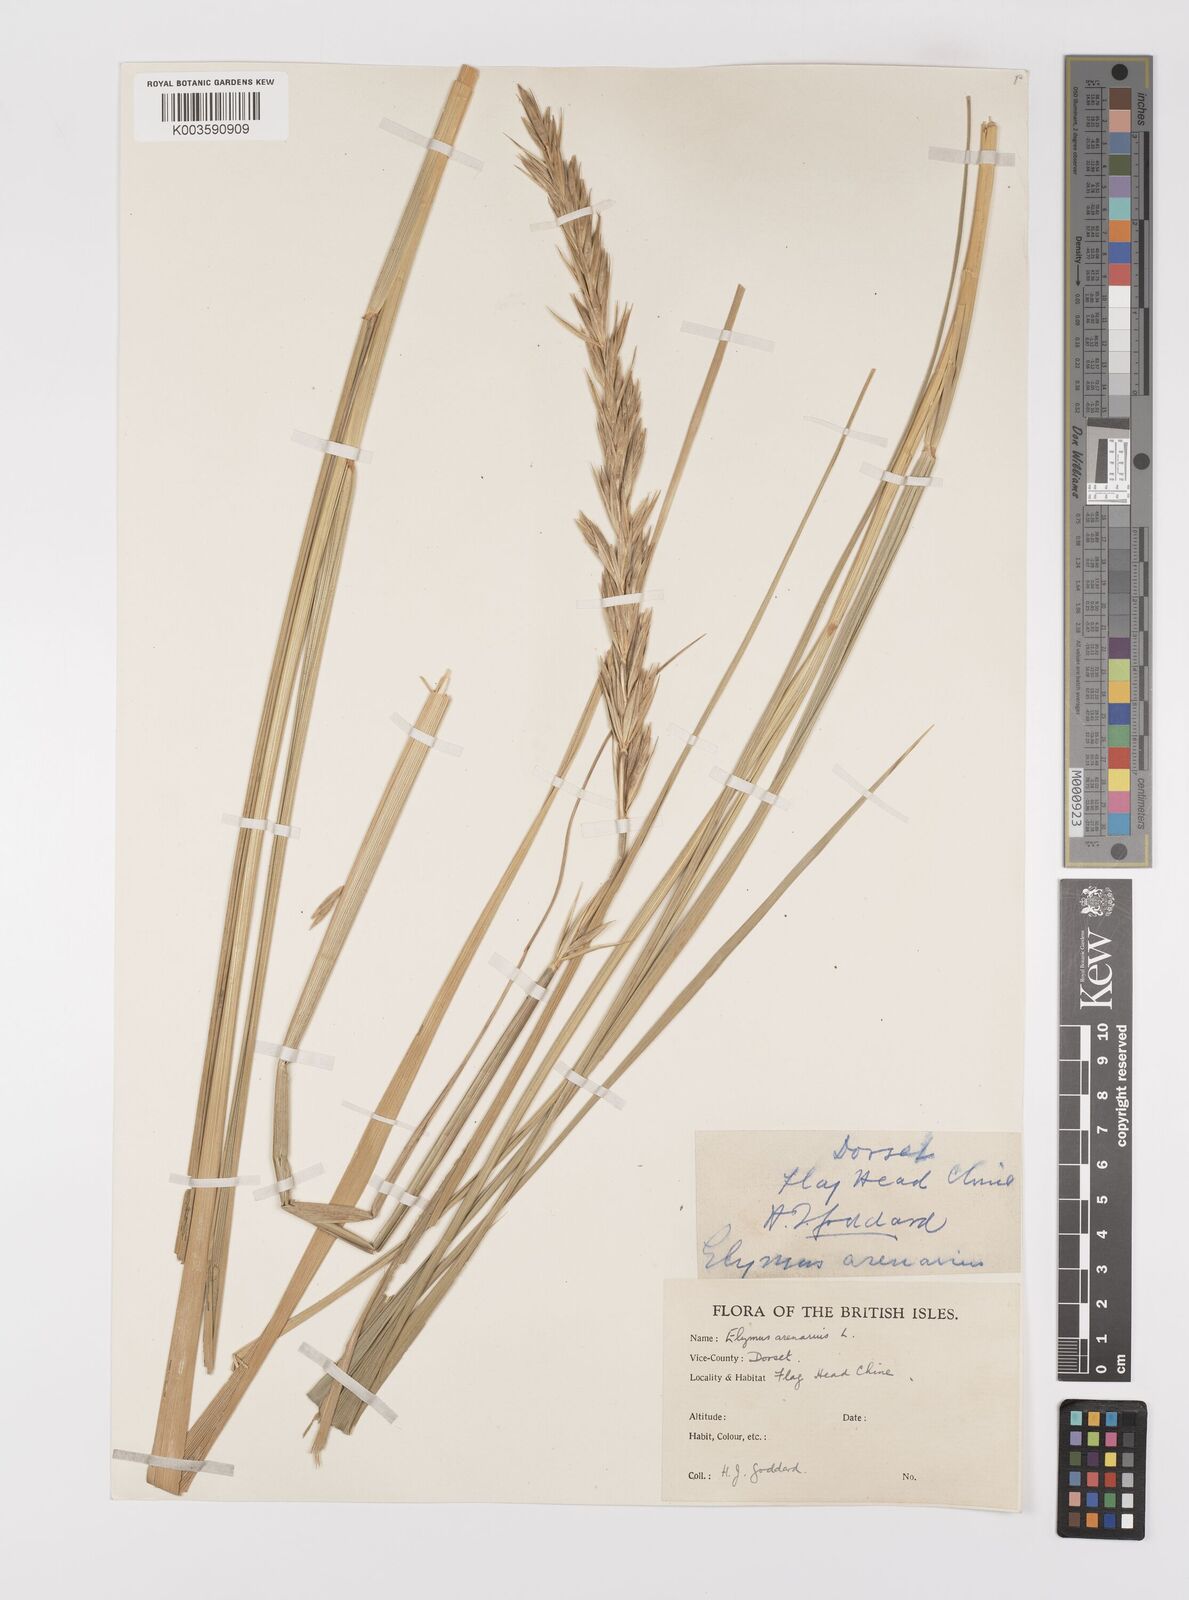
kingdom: Plantae
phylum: Tracheophyta
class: Liliopsida
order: Poales
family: Poaceae
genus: Leymus
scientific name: Leymus arenarius
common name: Lyme-grass
